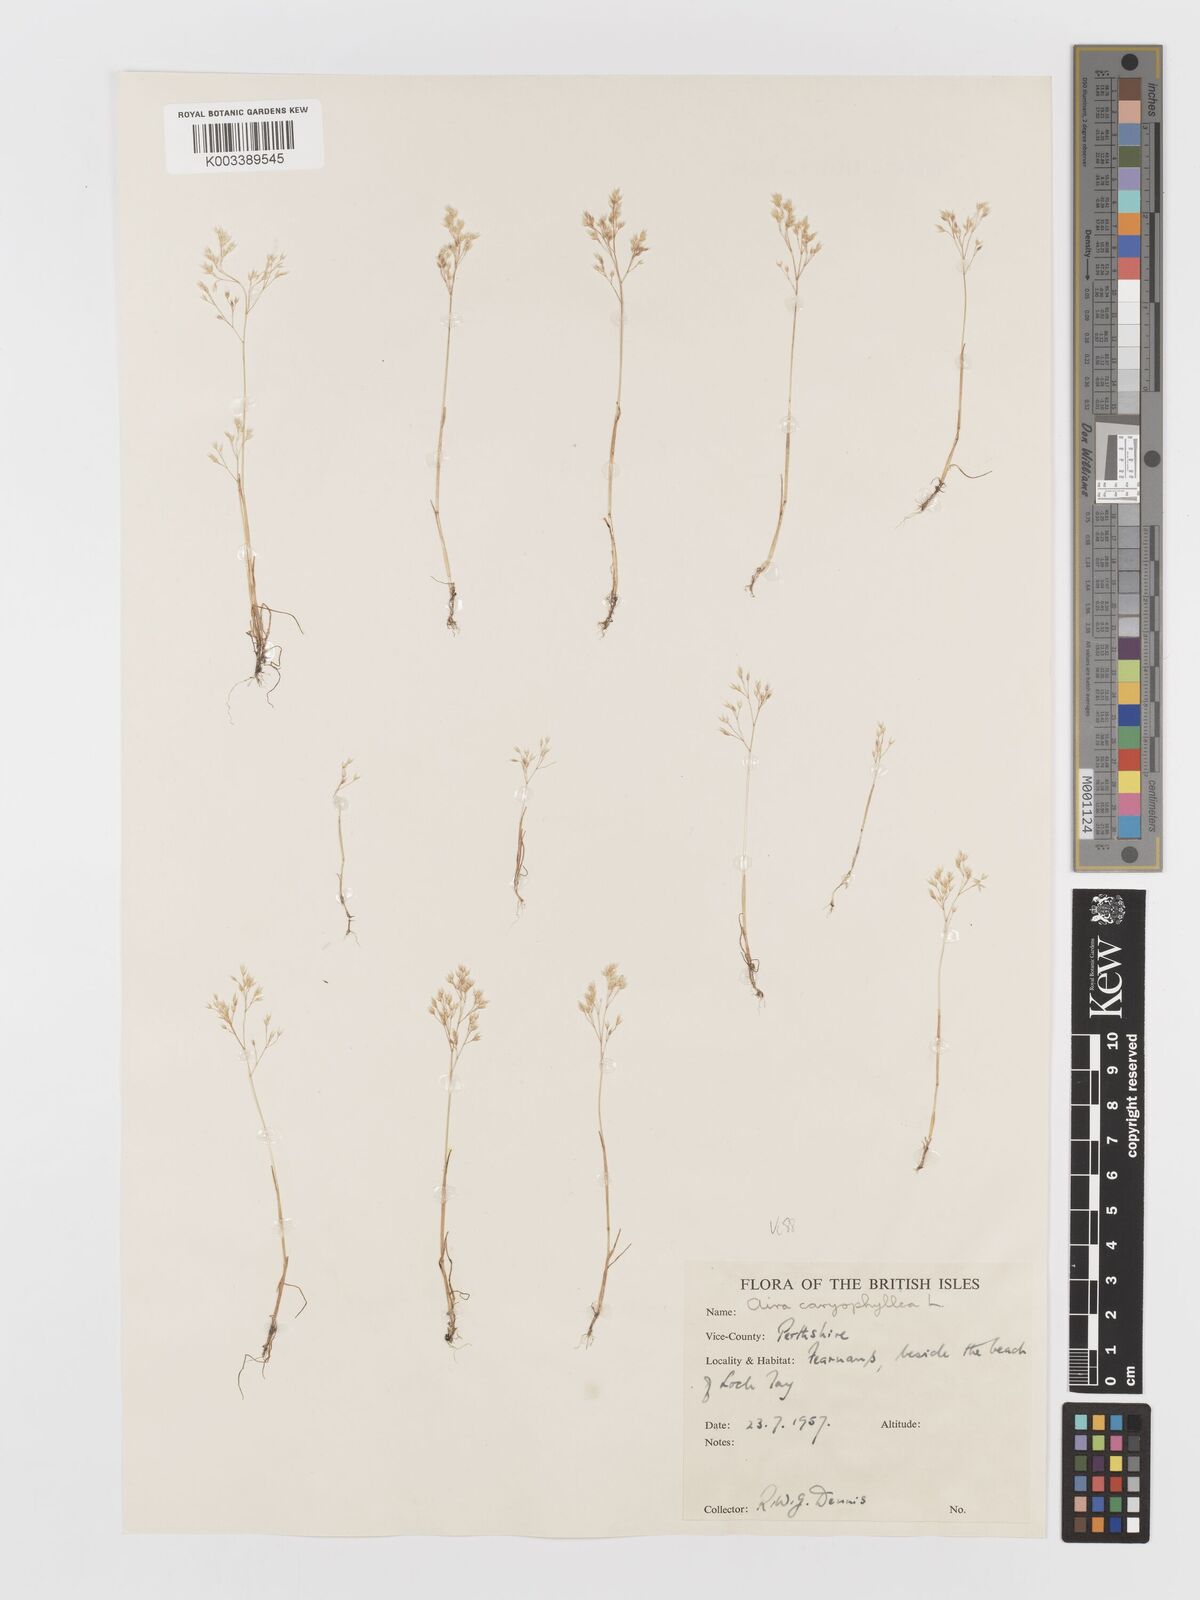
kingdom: Plantae
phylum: Tracheophyta
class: Liliopsida
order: Poales
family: Poaceae
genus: Aira
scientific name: Aira caryophyllea
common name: Silver hairgrass
